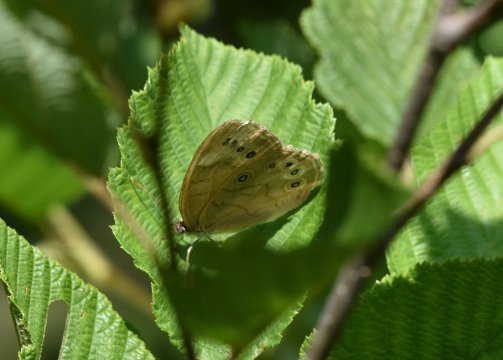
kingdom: Animalia
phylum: Arthropoda
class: Insecta
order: Lepidoptera
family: Nymphalidae
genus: Lethe
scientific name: Lethe eurydice
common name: Eyed Brown
